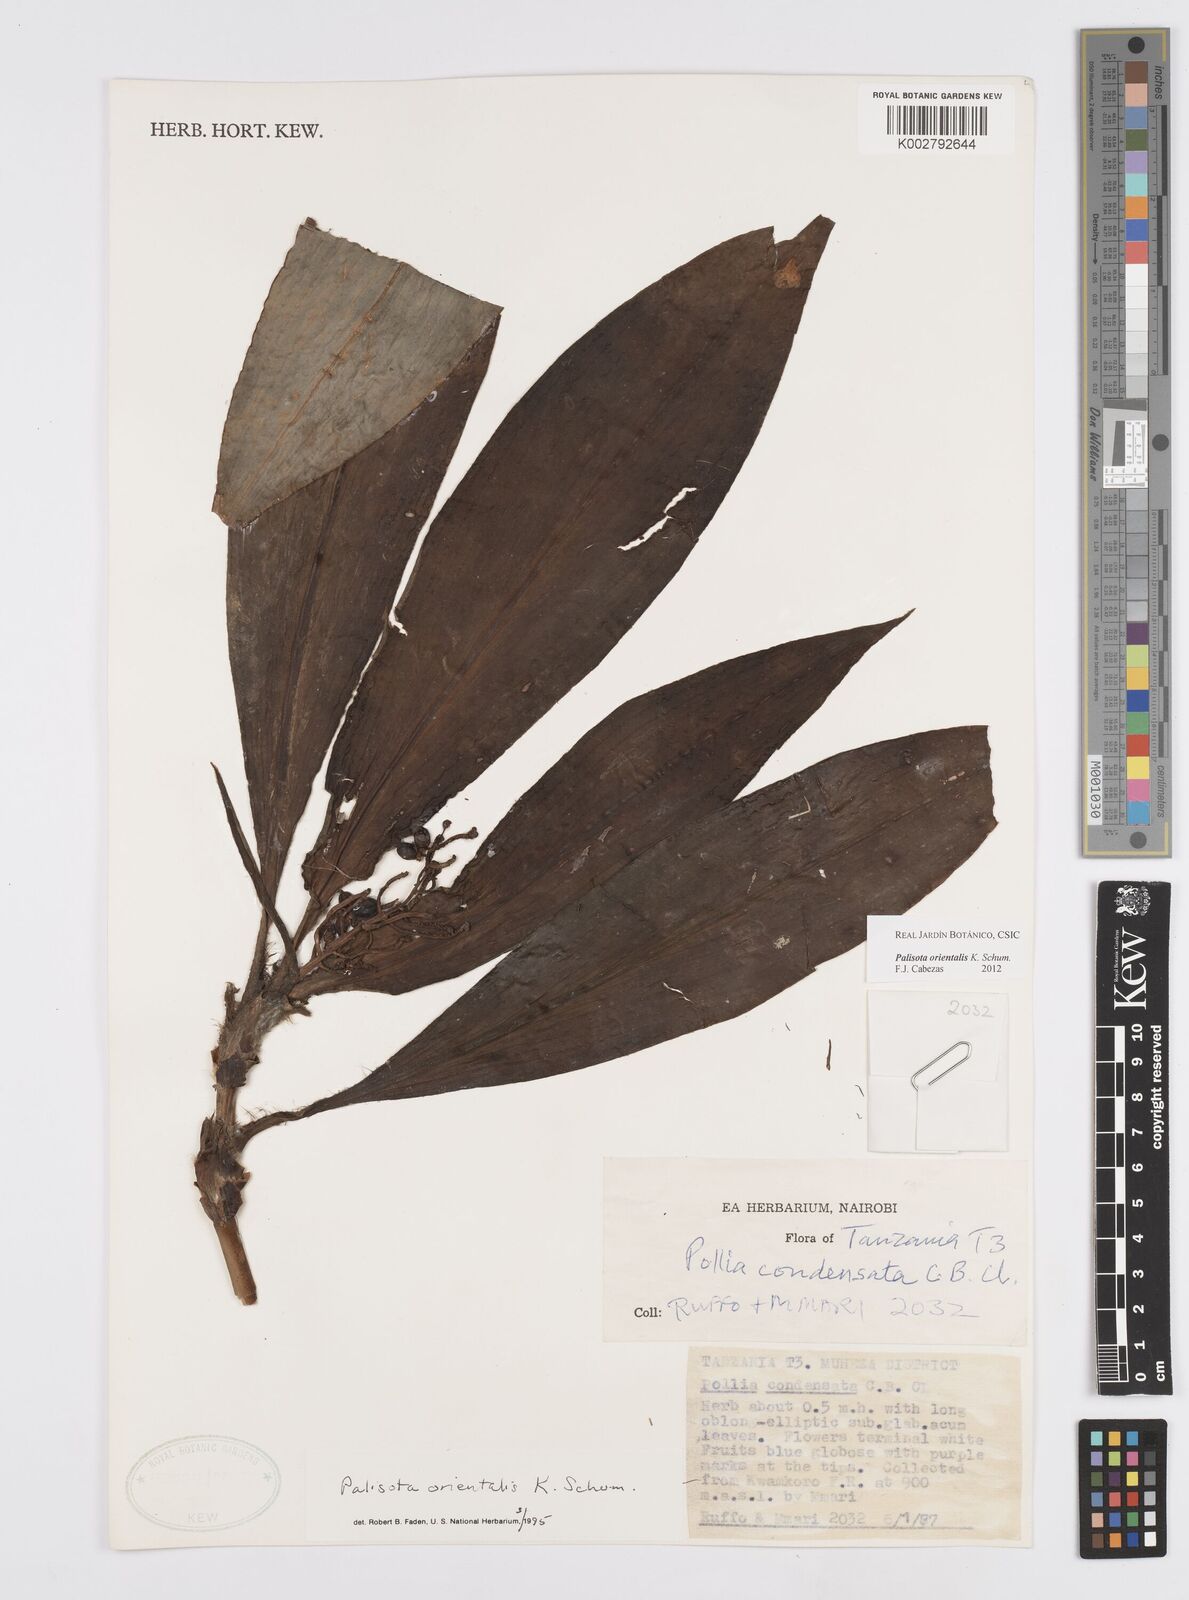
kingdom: Plantae
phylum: Tracheophyta
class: Liliopsida
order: Commelinales
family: Commelinaceae
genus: Palisota
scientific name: Palisota orientalis
